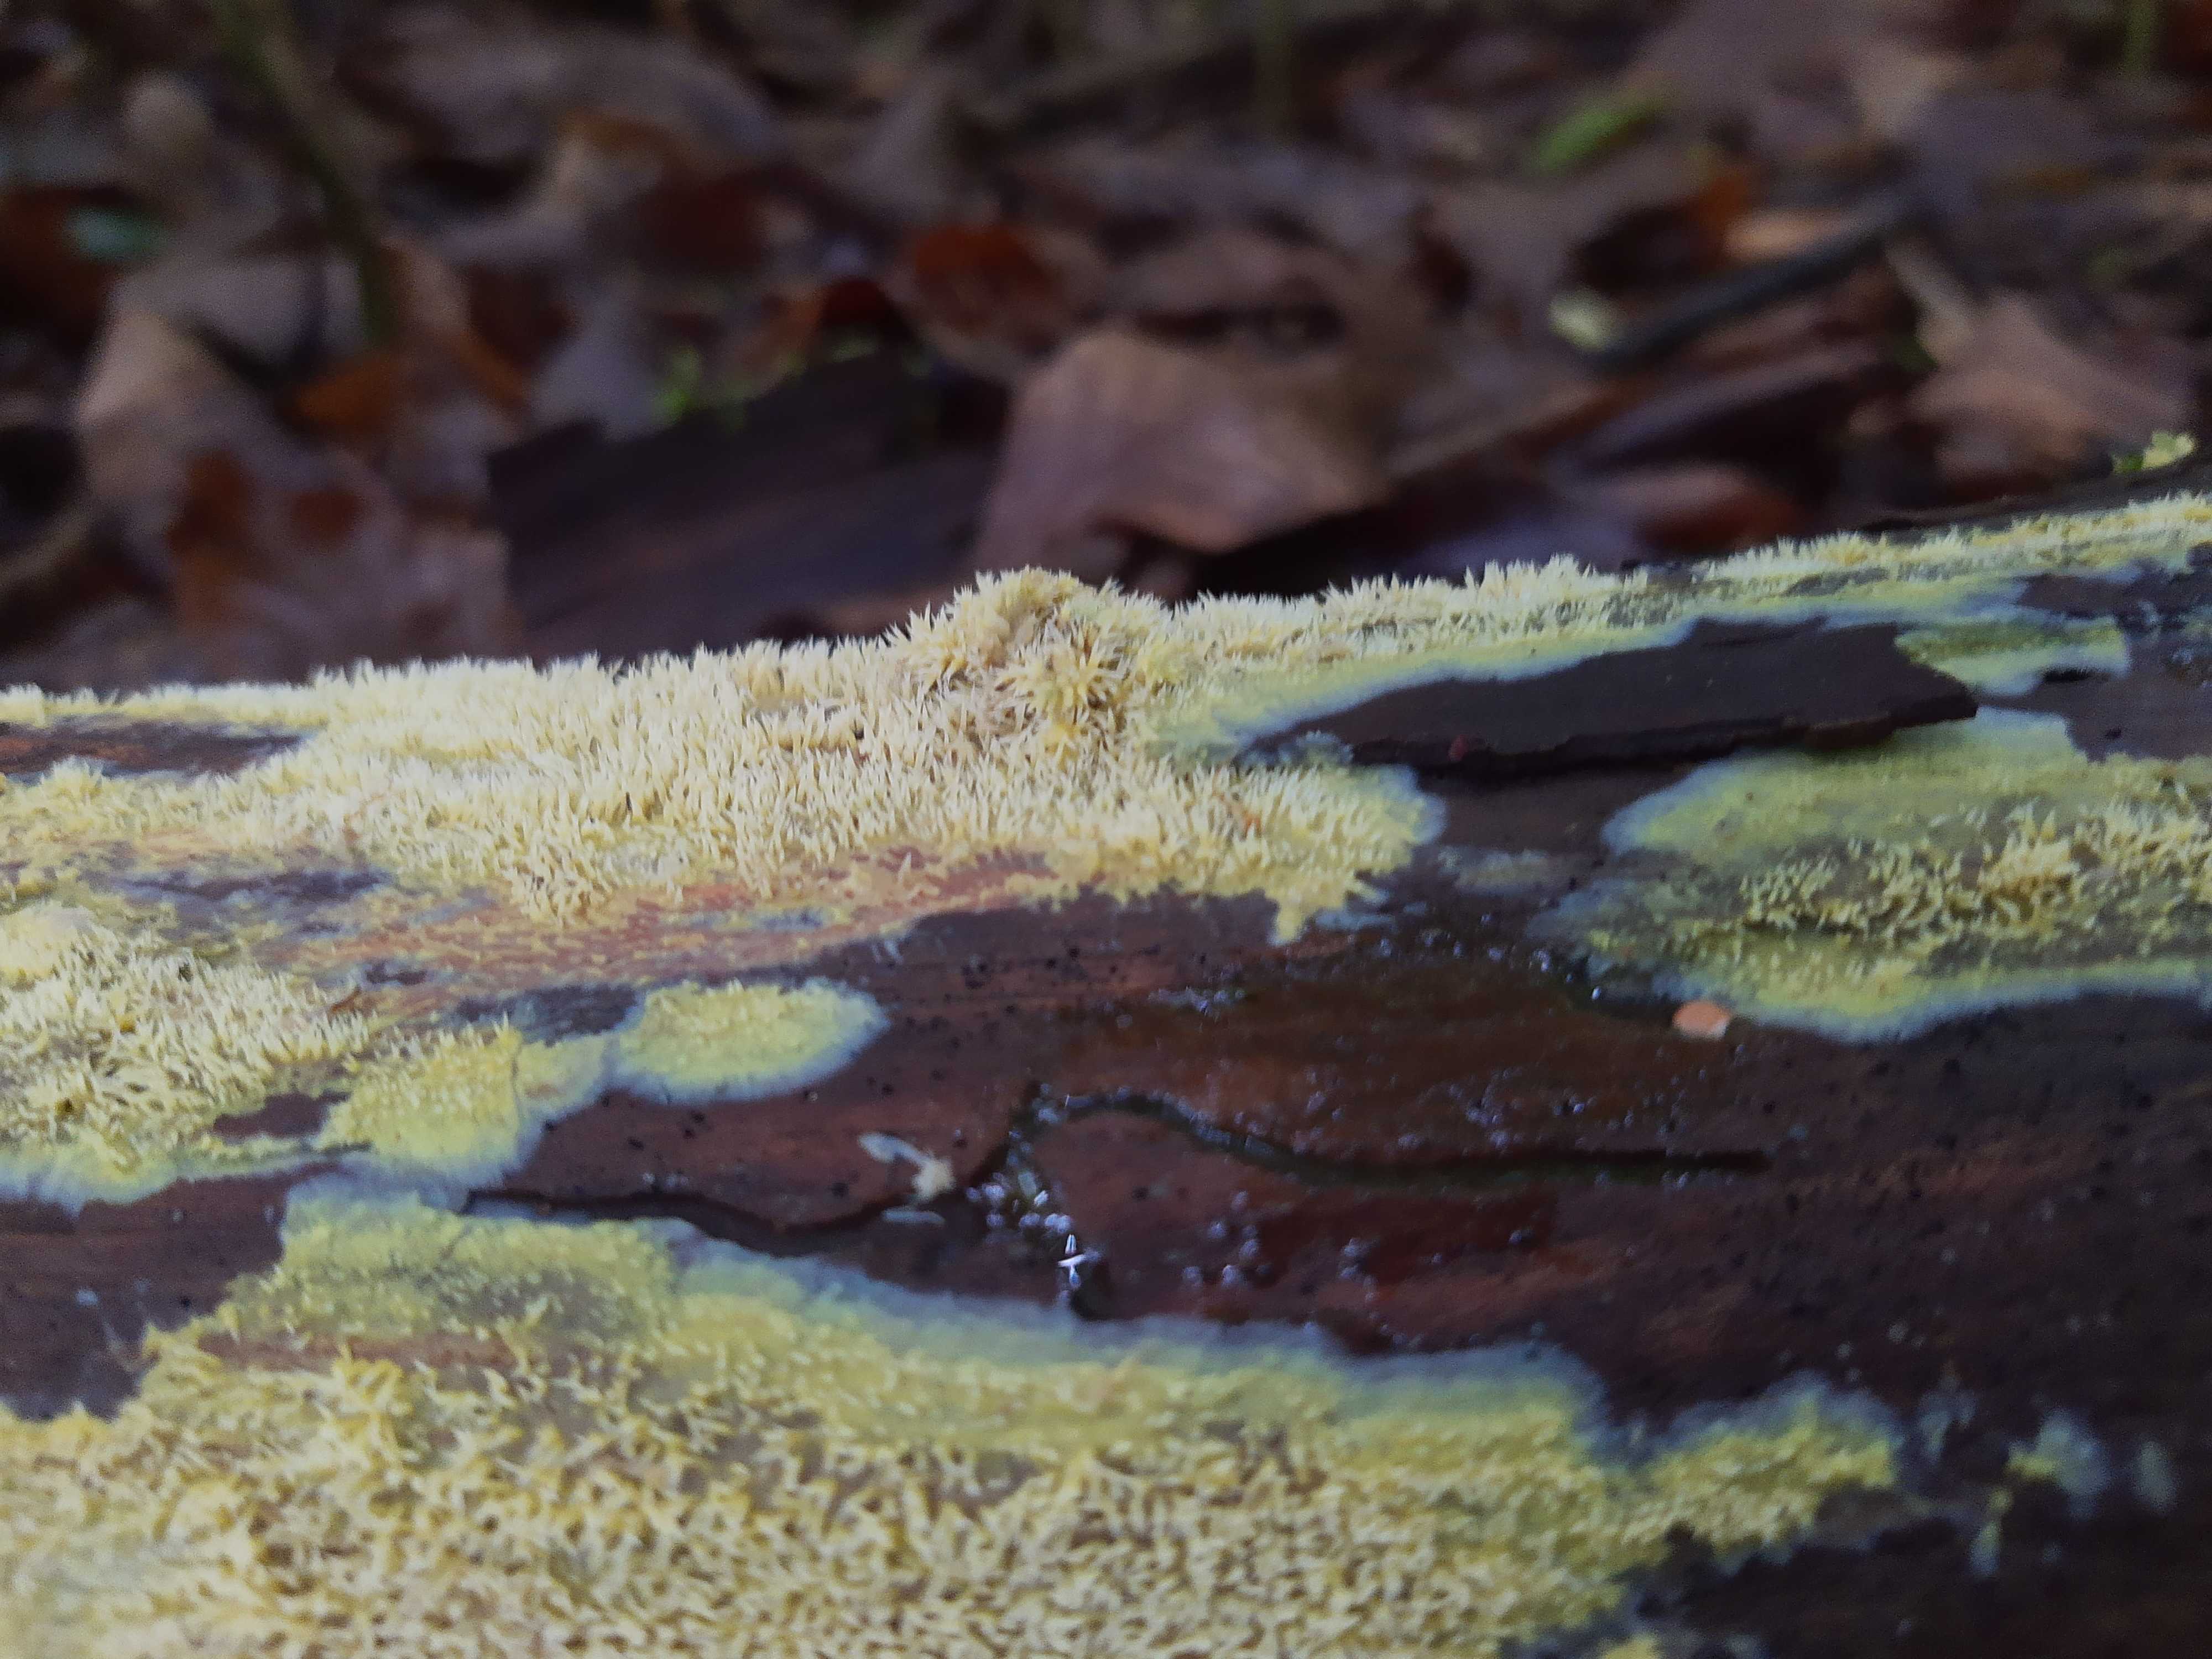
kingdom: Fungi
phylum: Basidiomycota
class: Agaricomycetes
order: Polyporales
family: Meruliaceae
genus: Mycoacia
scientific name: Mycoacia uda
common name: citrongul vokspig
